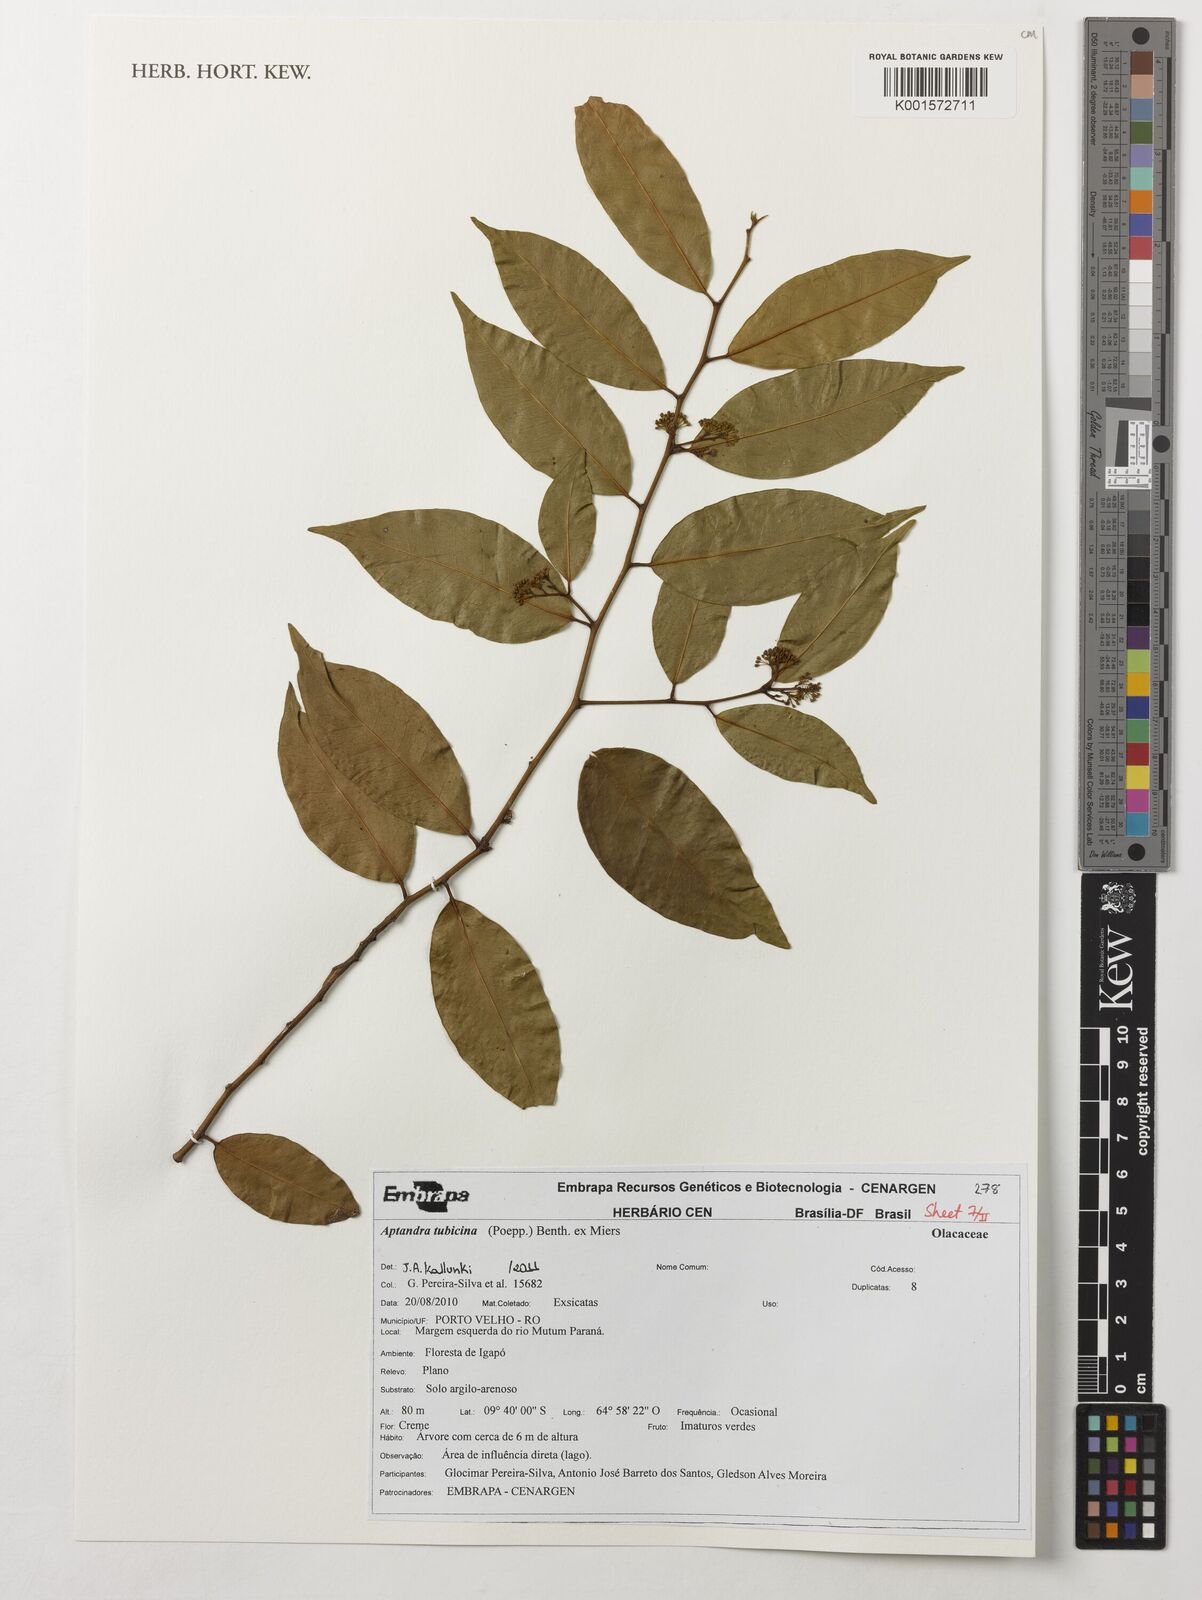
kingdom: Plantae
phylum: Tracheophyta
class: Magnoliopsida
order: Santalales
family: Aptandraceae
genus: Aptandra
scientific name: Aptandra tubicina
